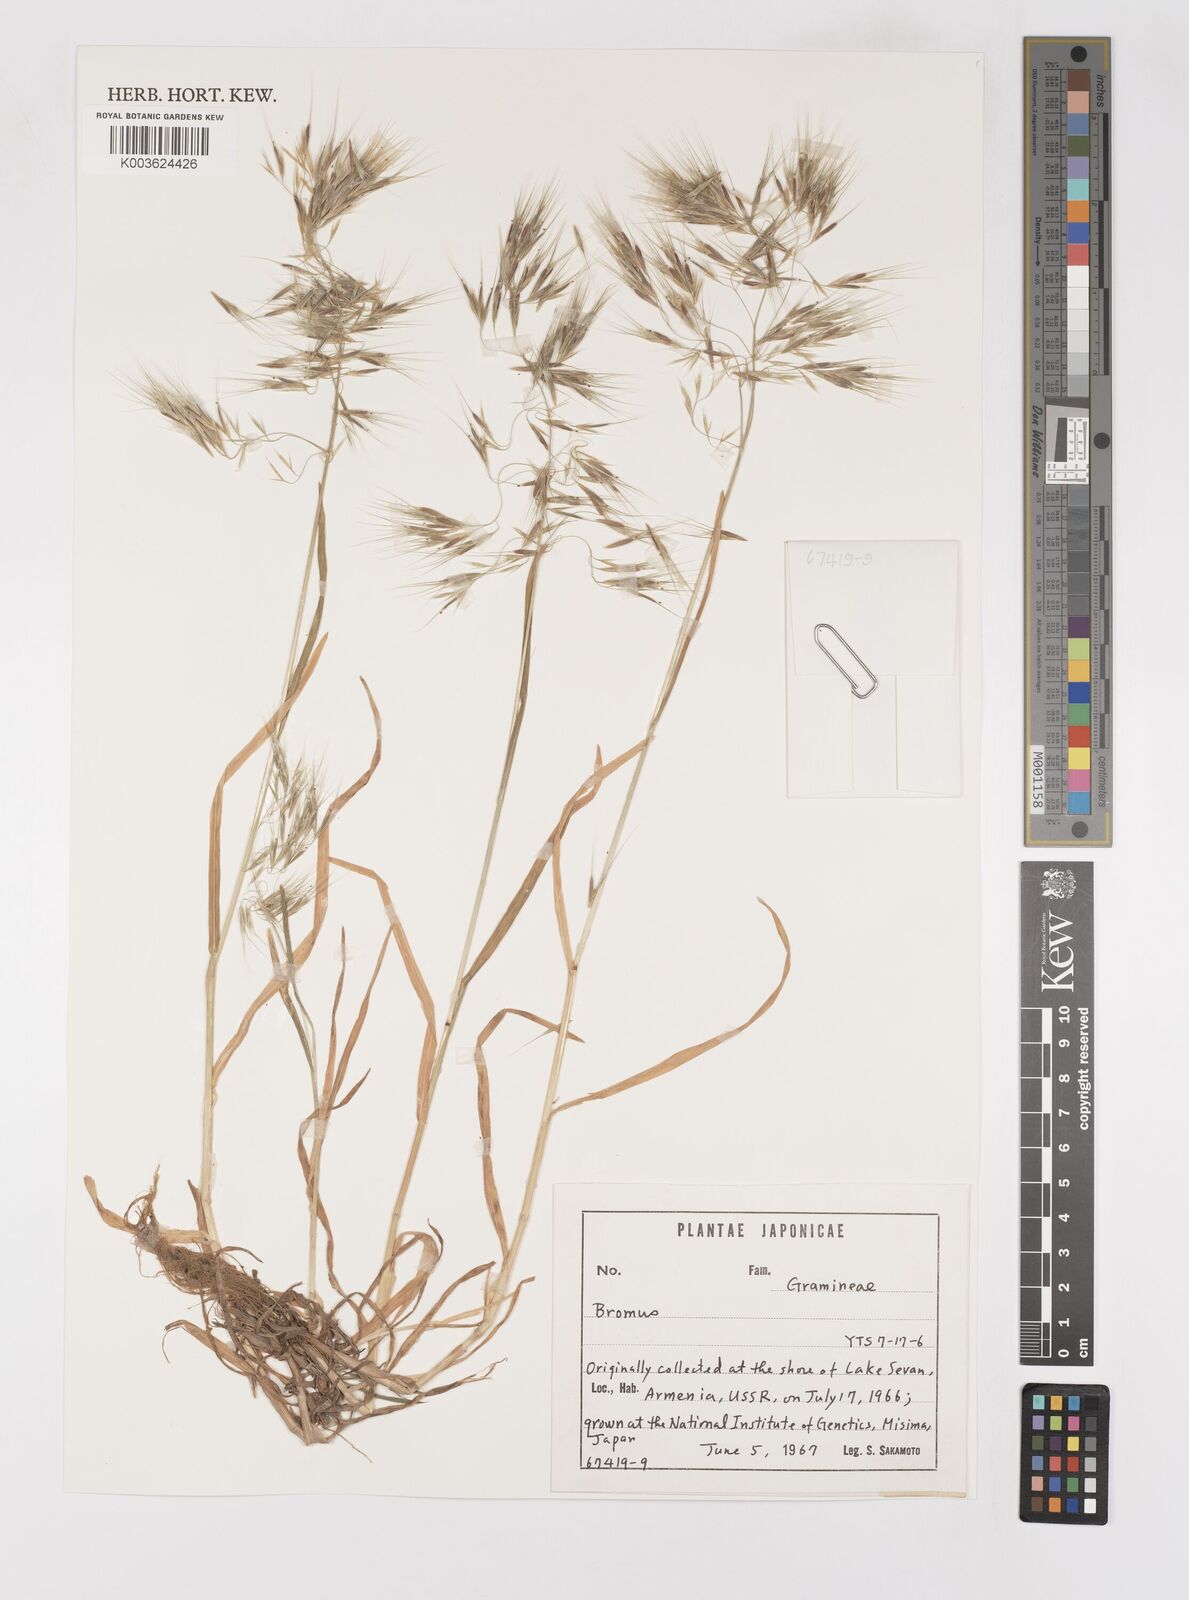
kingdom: Plantae
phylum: Tracheophyta
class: Liliopsida
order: Poales
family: Poaceae
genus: Bromus
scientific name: Bromus
